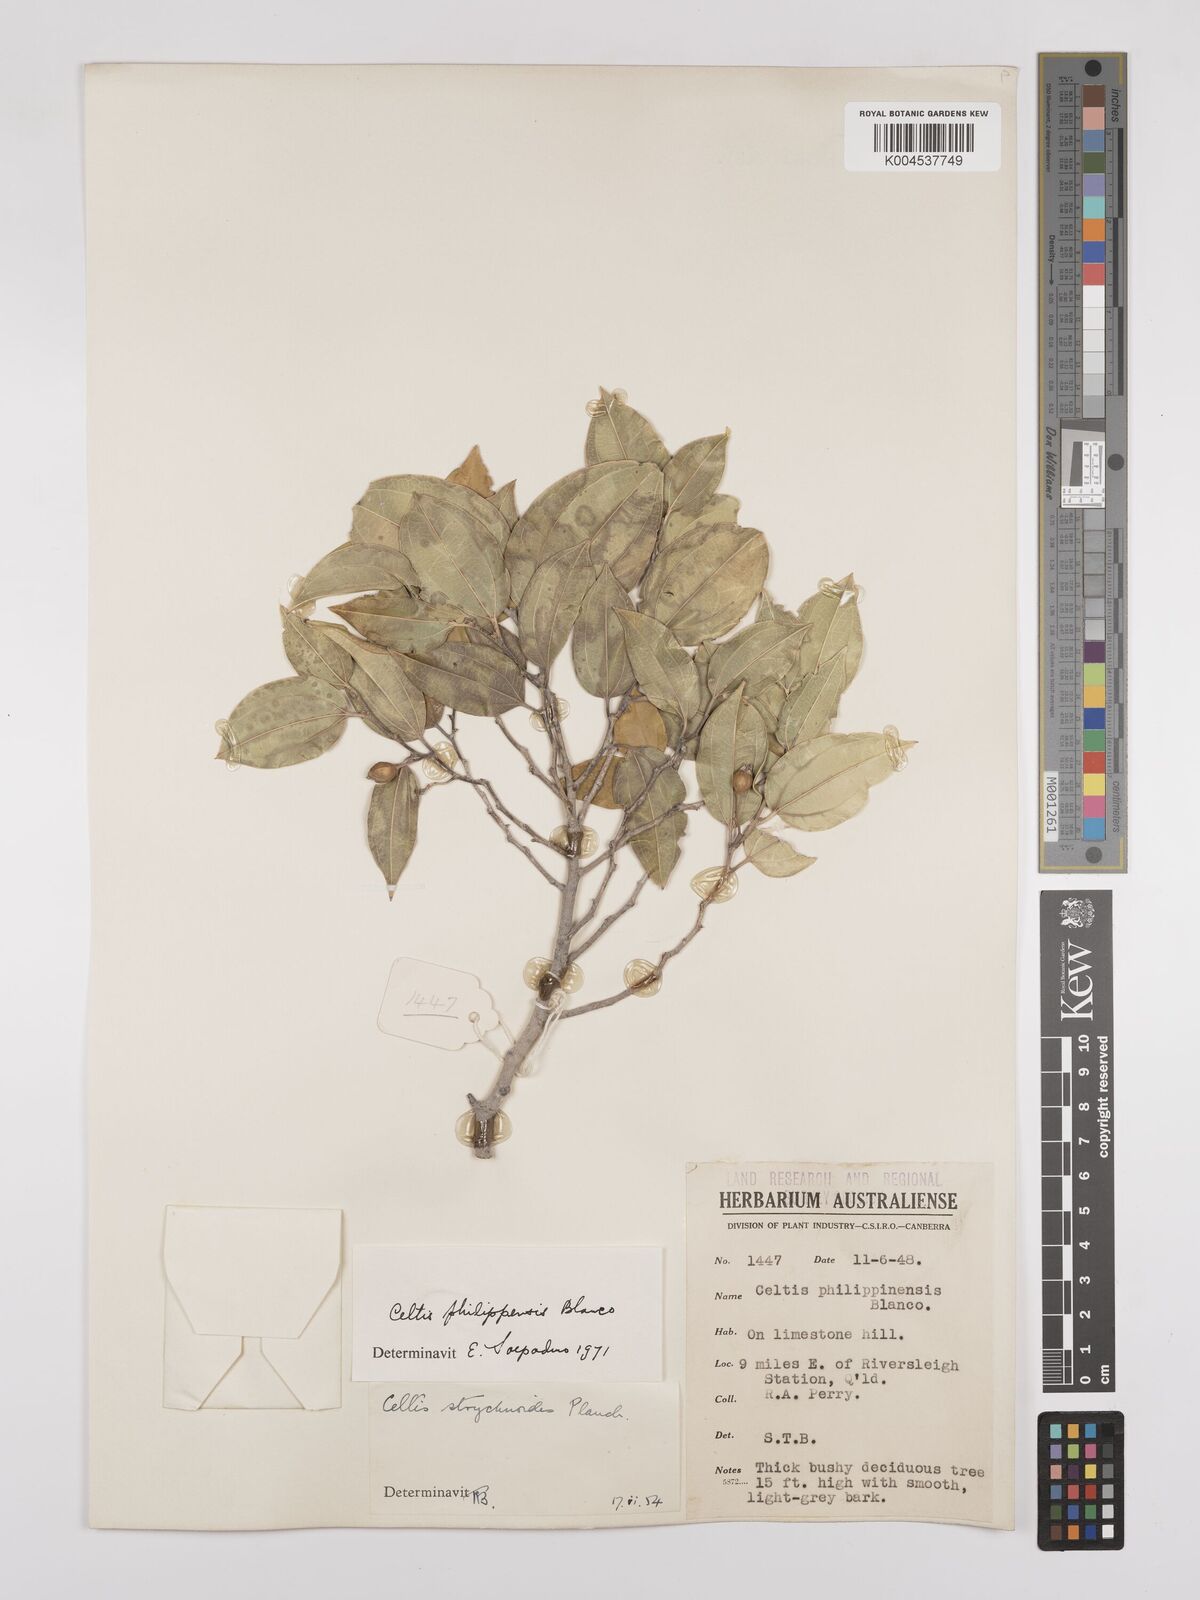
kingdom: Plantae
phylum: Tracheophyta
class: Magnoliopsida
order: Rosales
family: Cannabaceae
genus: Celtis
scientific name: Celtis philippensis
